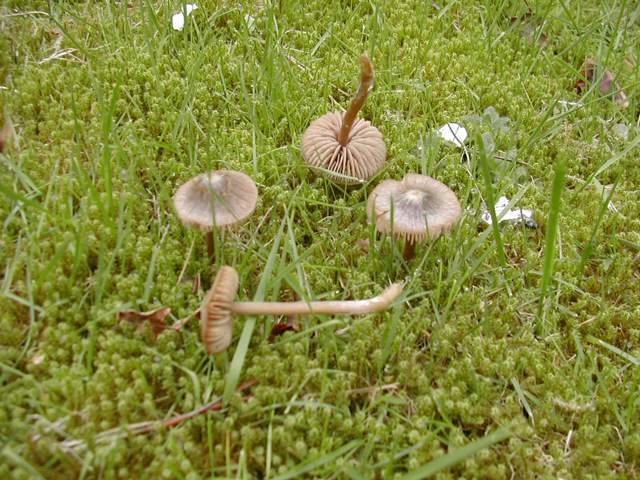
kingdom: Fungi
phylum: Basidiomycota
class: Agaricomycetes
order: Agaricales
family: Entolomataceae
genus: Entoloma
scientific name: Entoloma vernum
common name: vår-rødblad
